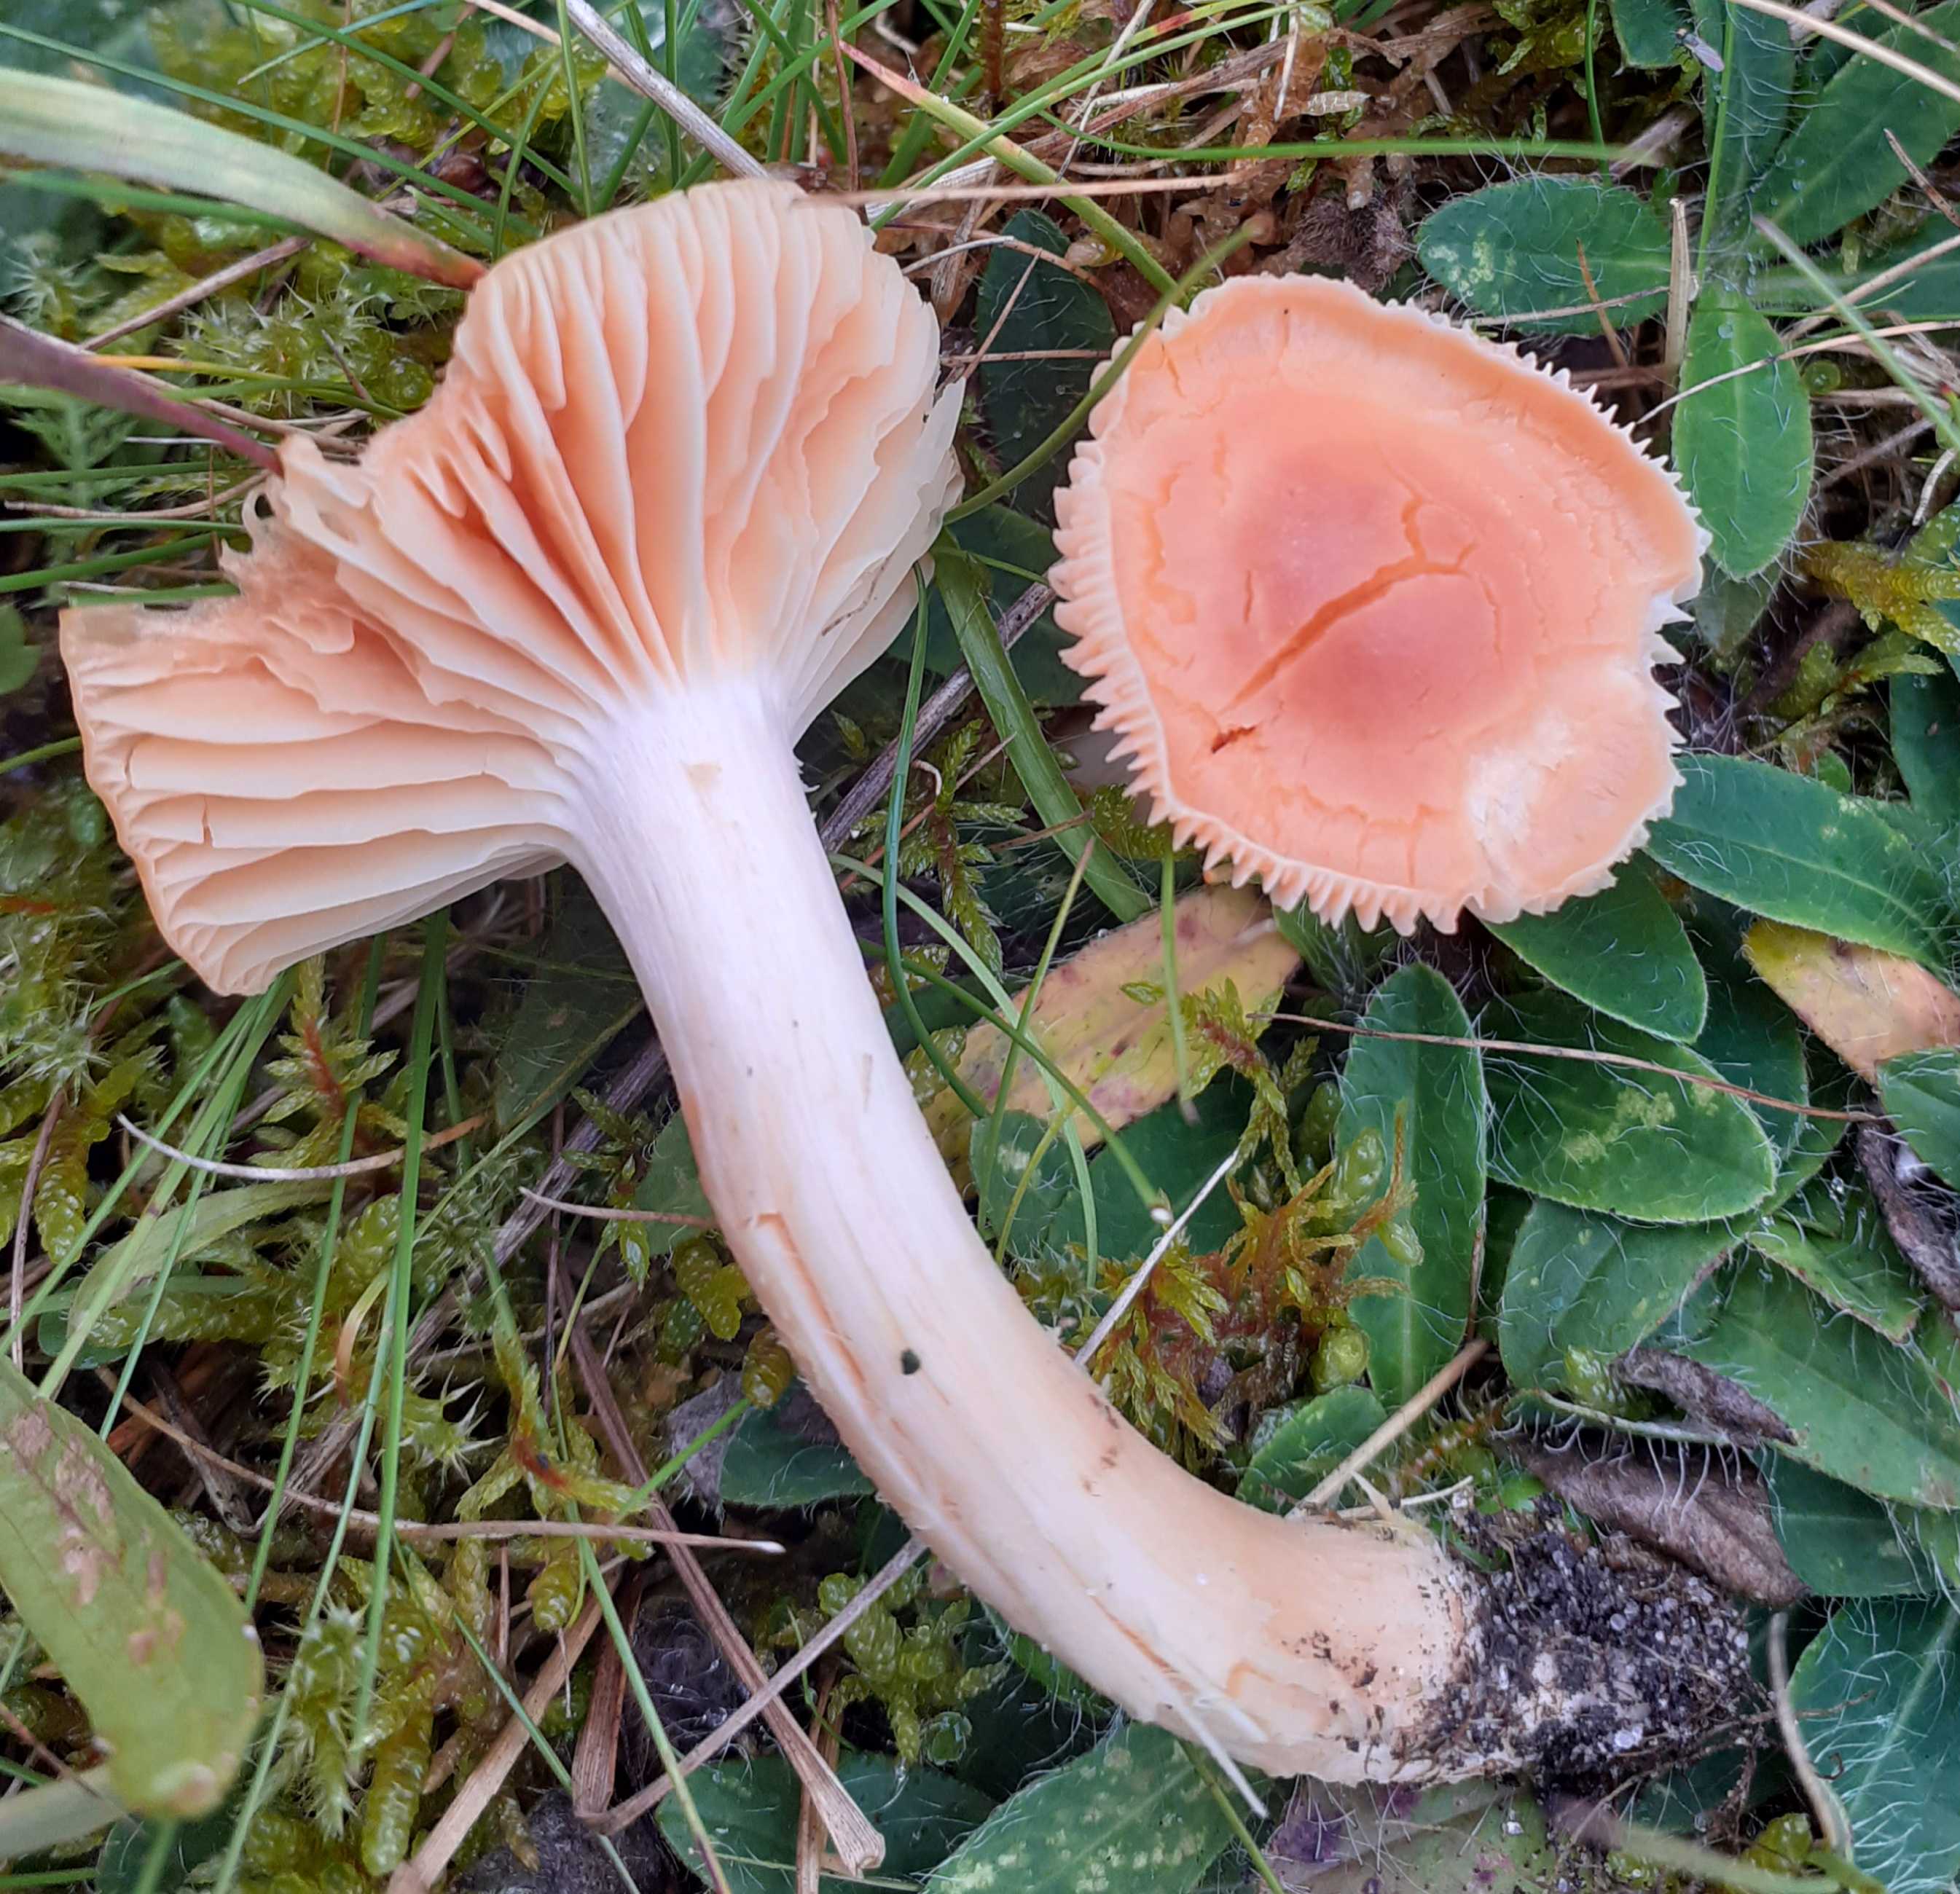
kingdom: Fungi
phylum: Basidiomycota
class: Agaricomycetes
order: Agaricales
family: Hygrophoraceae
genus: Cuphophyllus
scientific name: Cuphophyllus pratensis
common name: eng-vokshat
